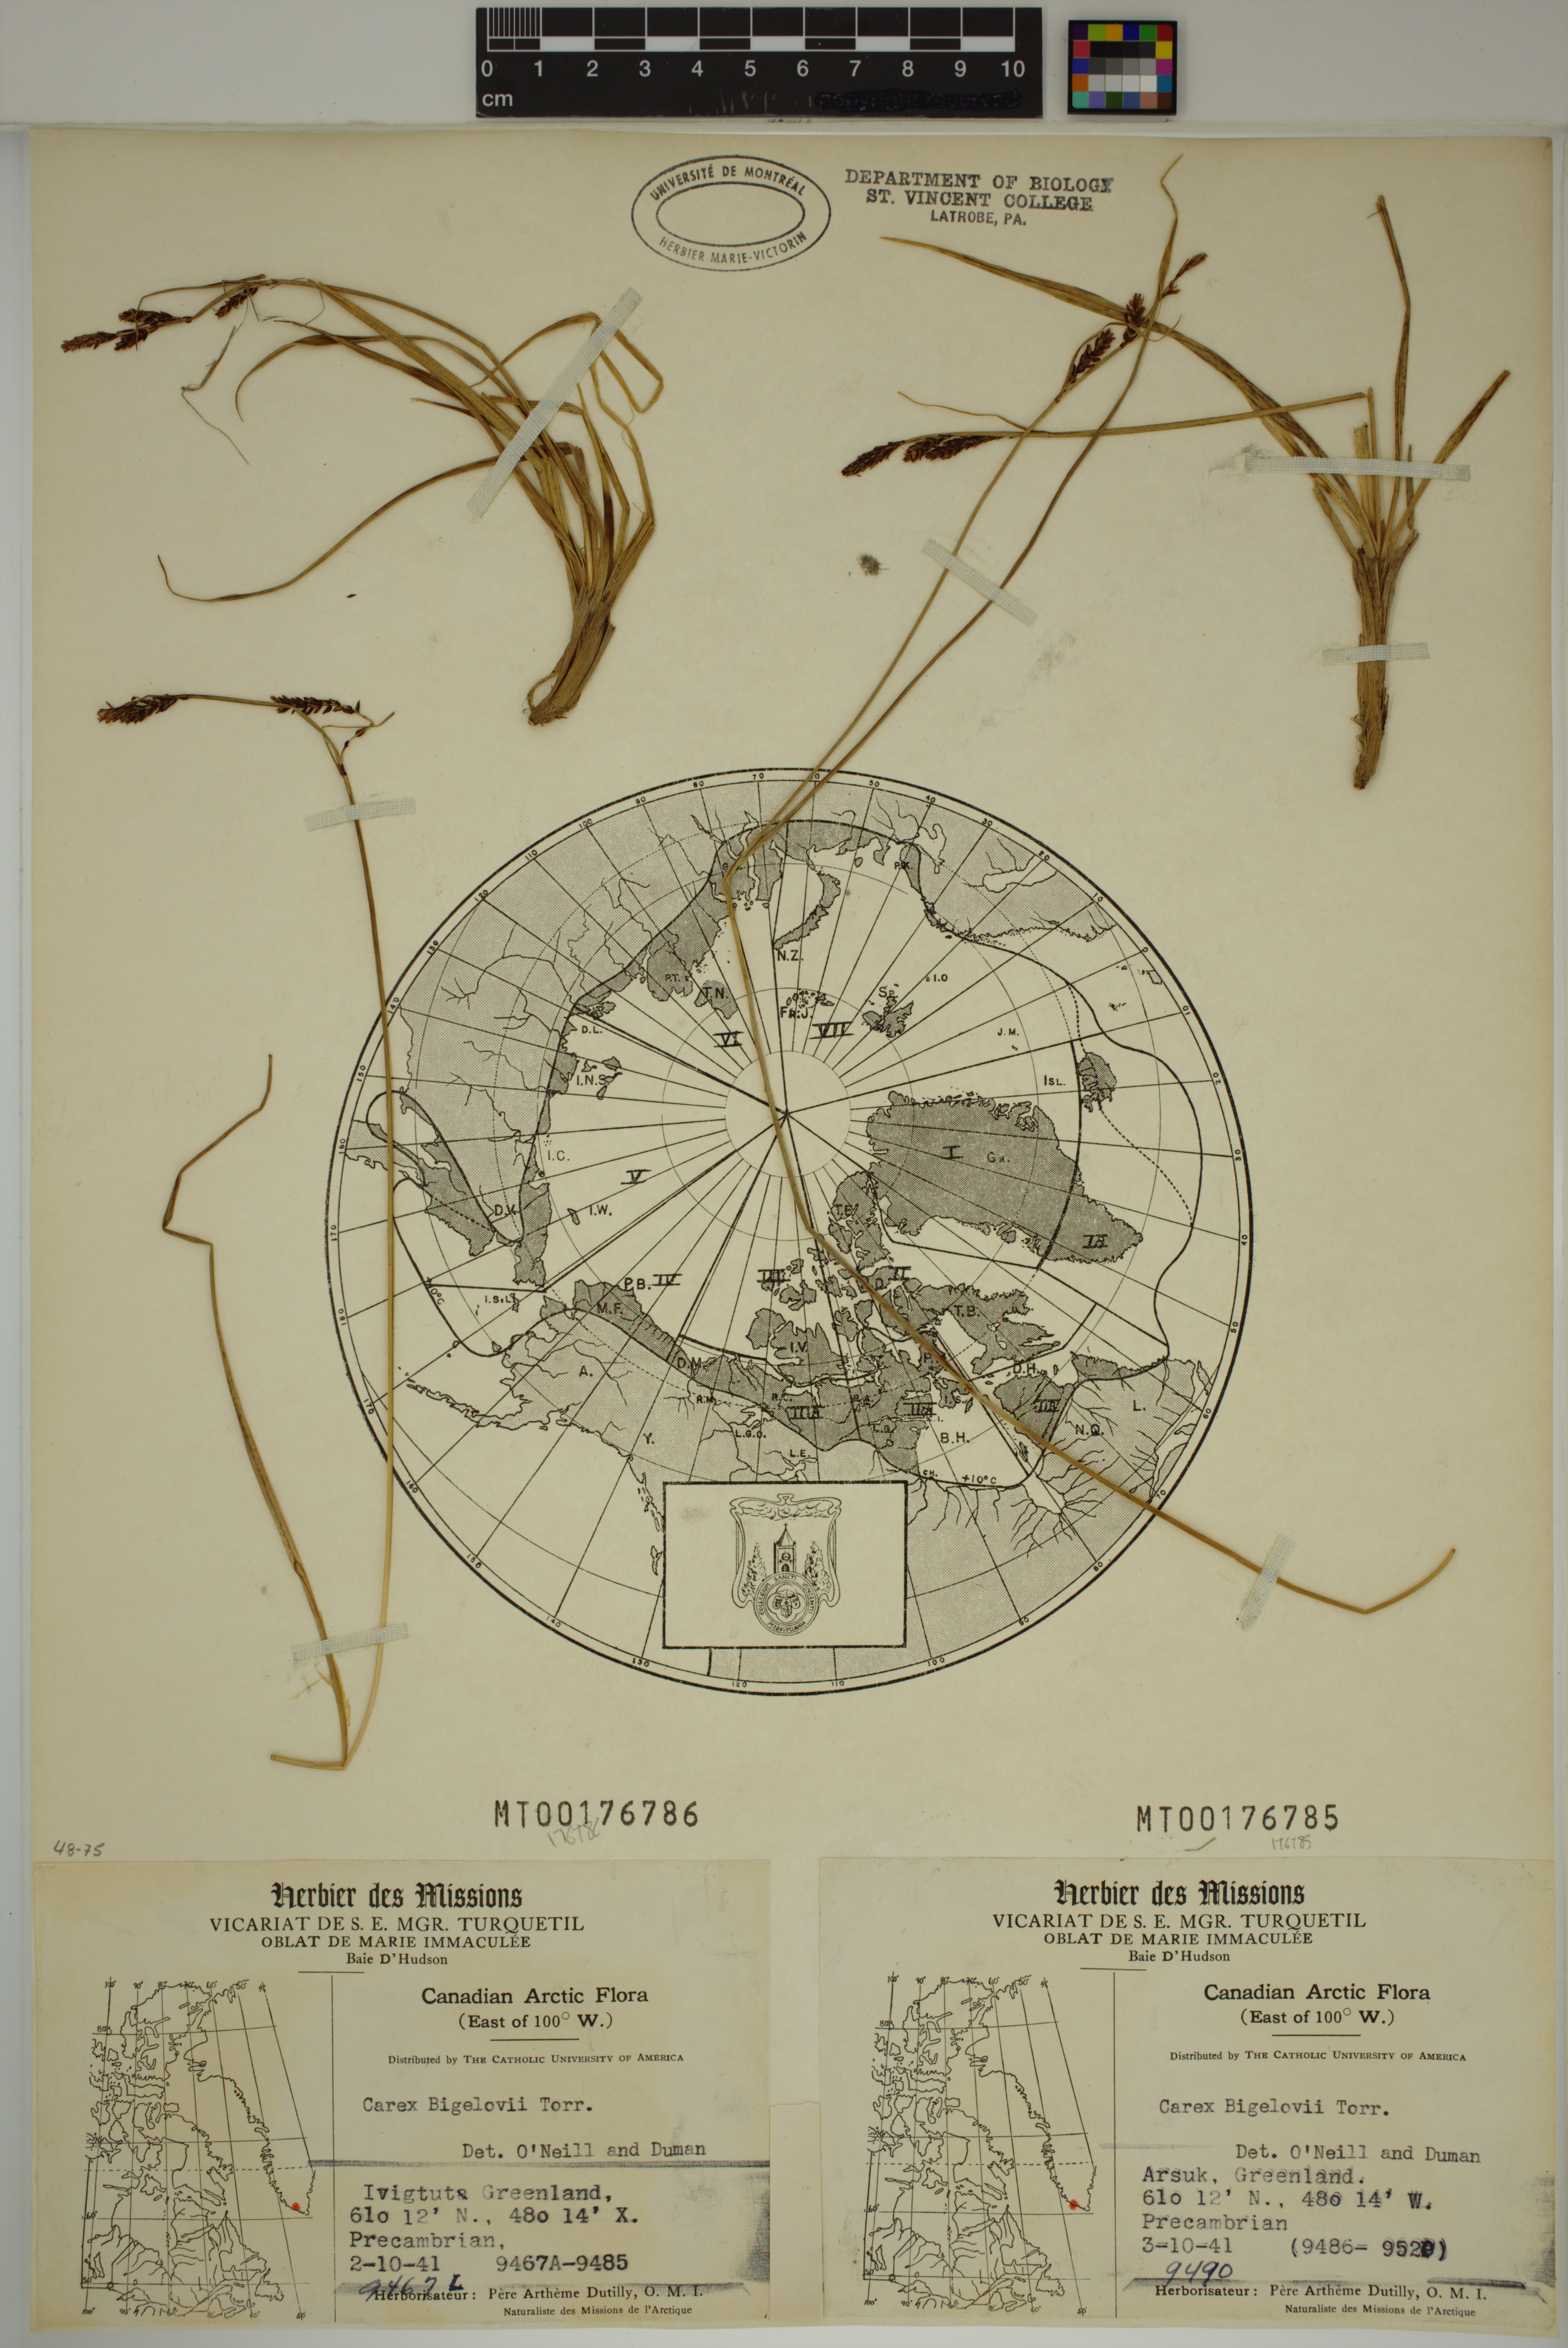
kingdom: Plantae
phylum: Tracheophyta
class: Liliopsida
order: Poales
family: Cyperaceae
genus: Carex
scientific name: Carex bigelowii
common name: Stiff sedge
